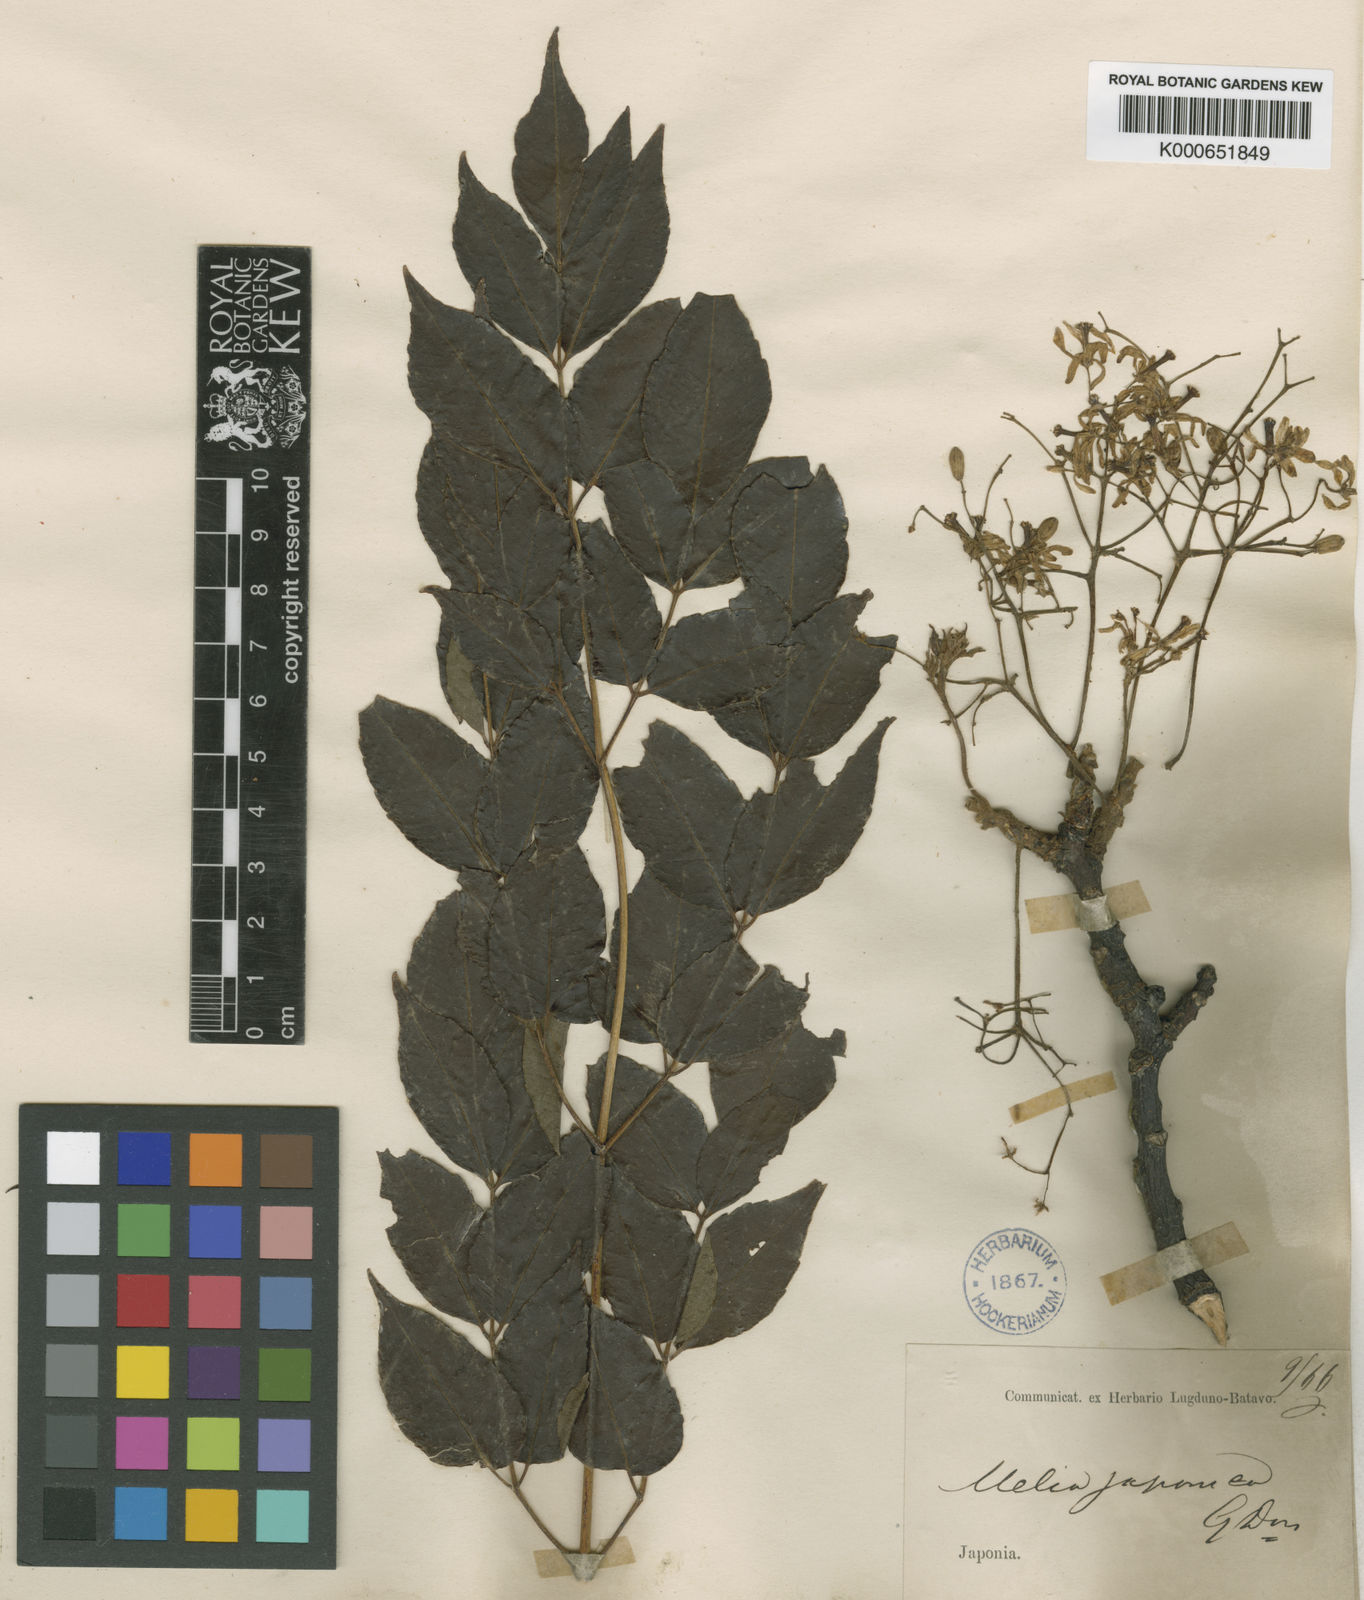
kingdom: Plantae
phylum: Tracheophyta
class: Magnoliopsida
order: Sapindales
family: Meliaceae
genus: Melia
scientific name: Melia azedarach
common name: Chinaberrytree
